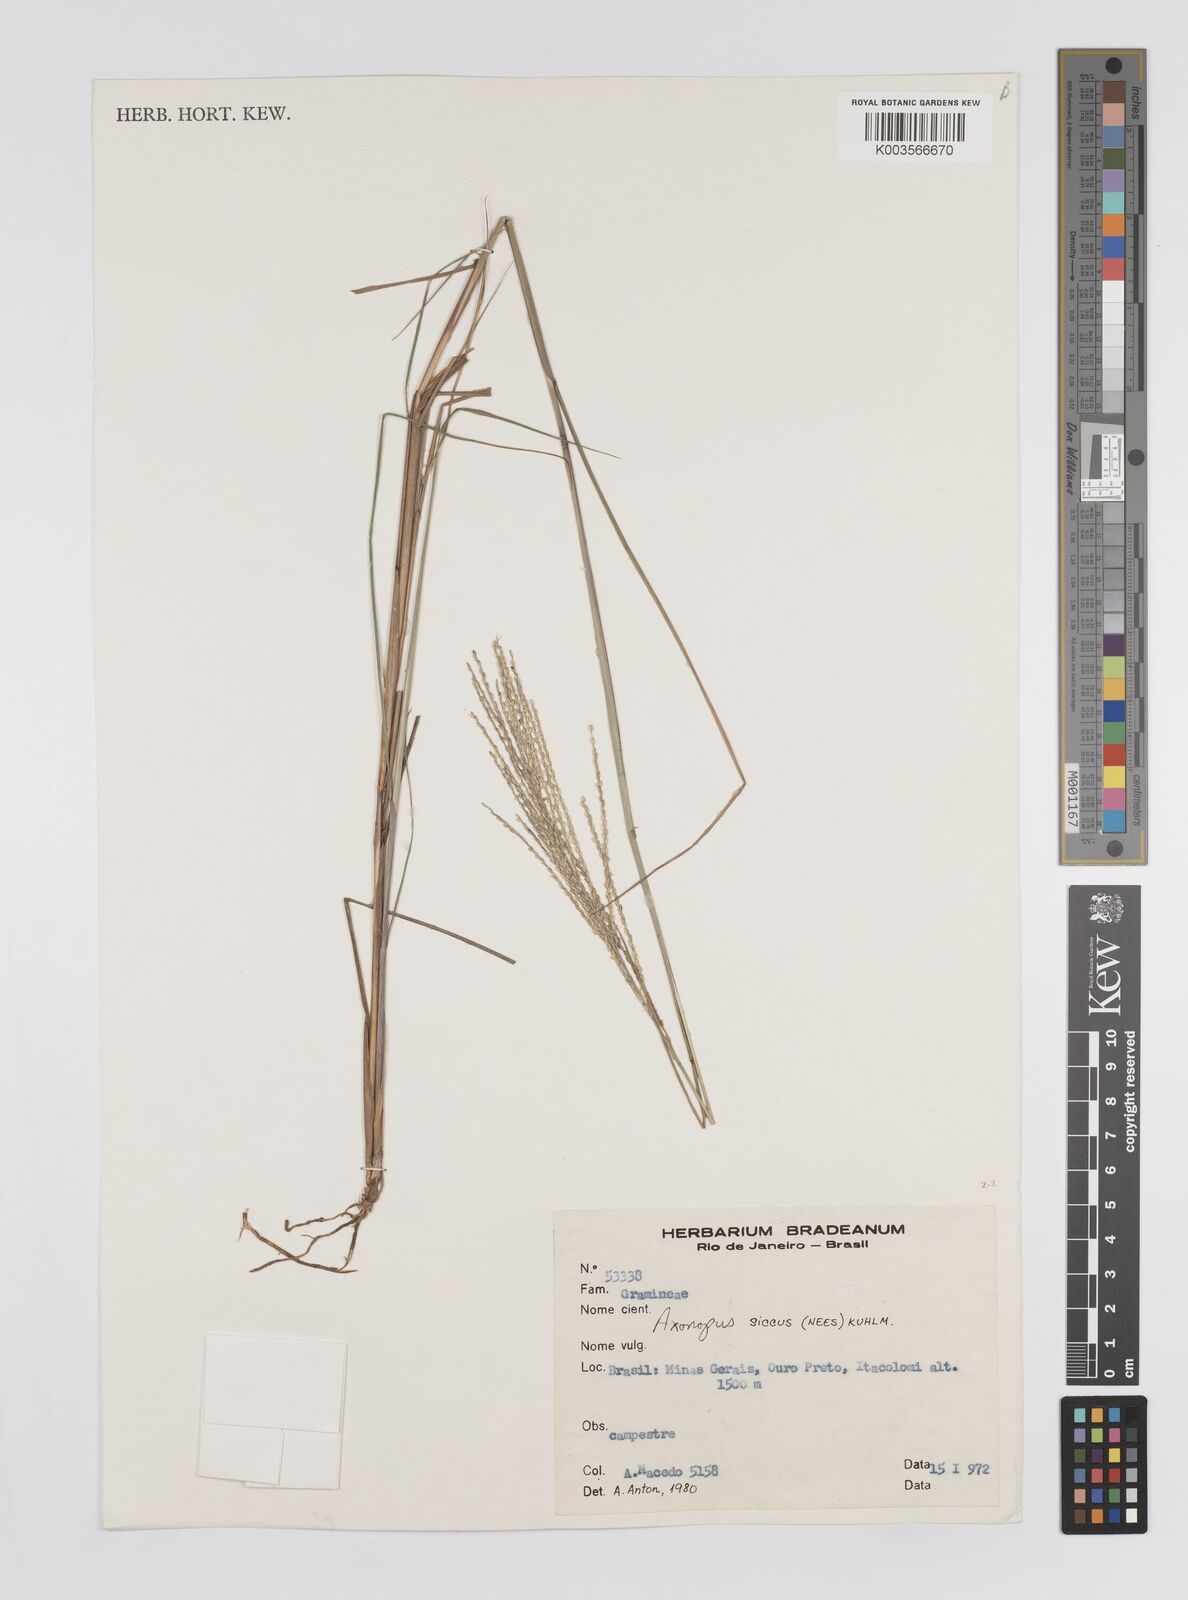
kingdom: Plantae
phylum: Tracheophyta
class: Liliopsida
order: Poales
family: Poaceae
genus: Axonopus
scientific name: Axonopus siccus
